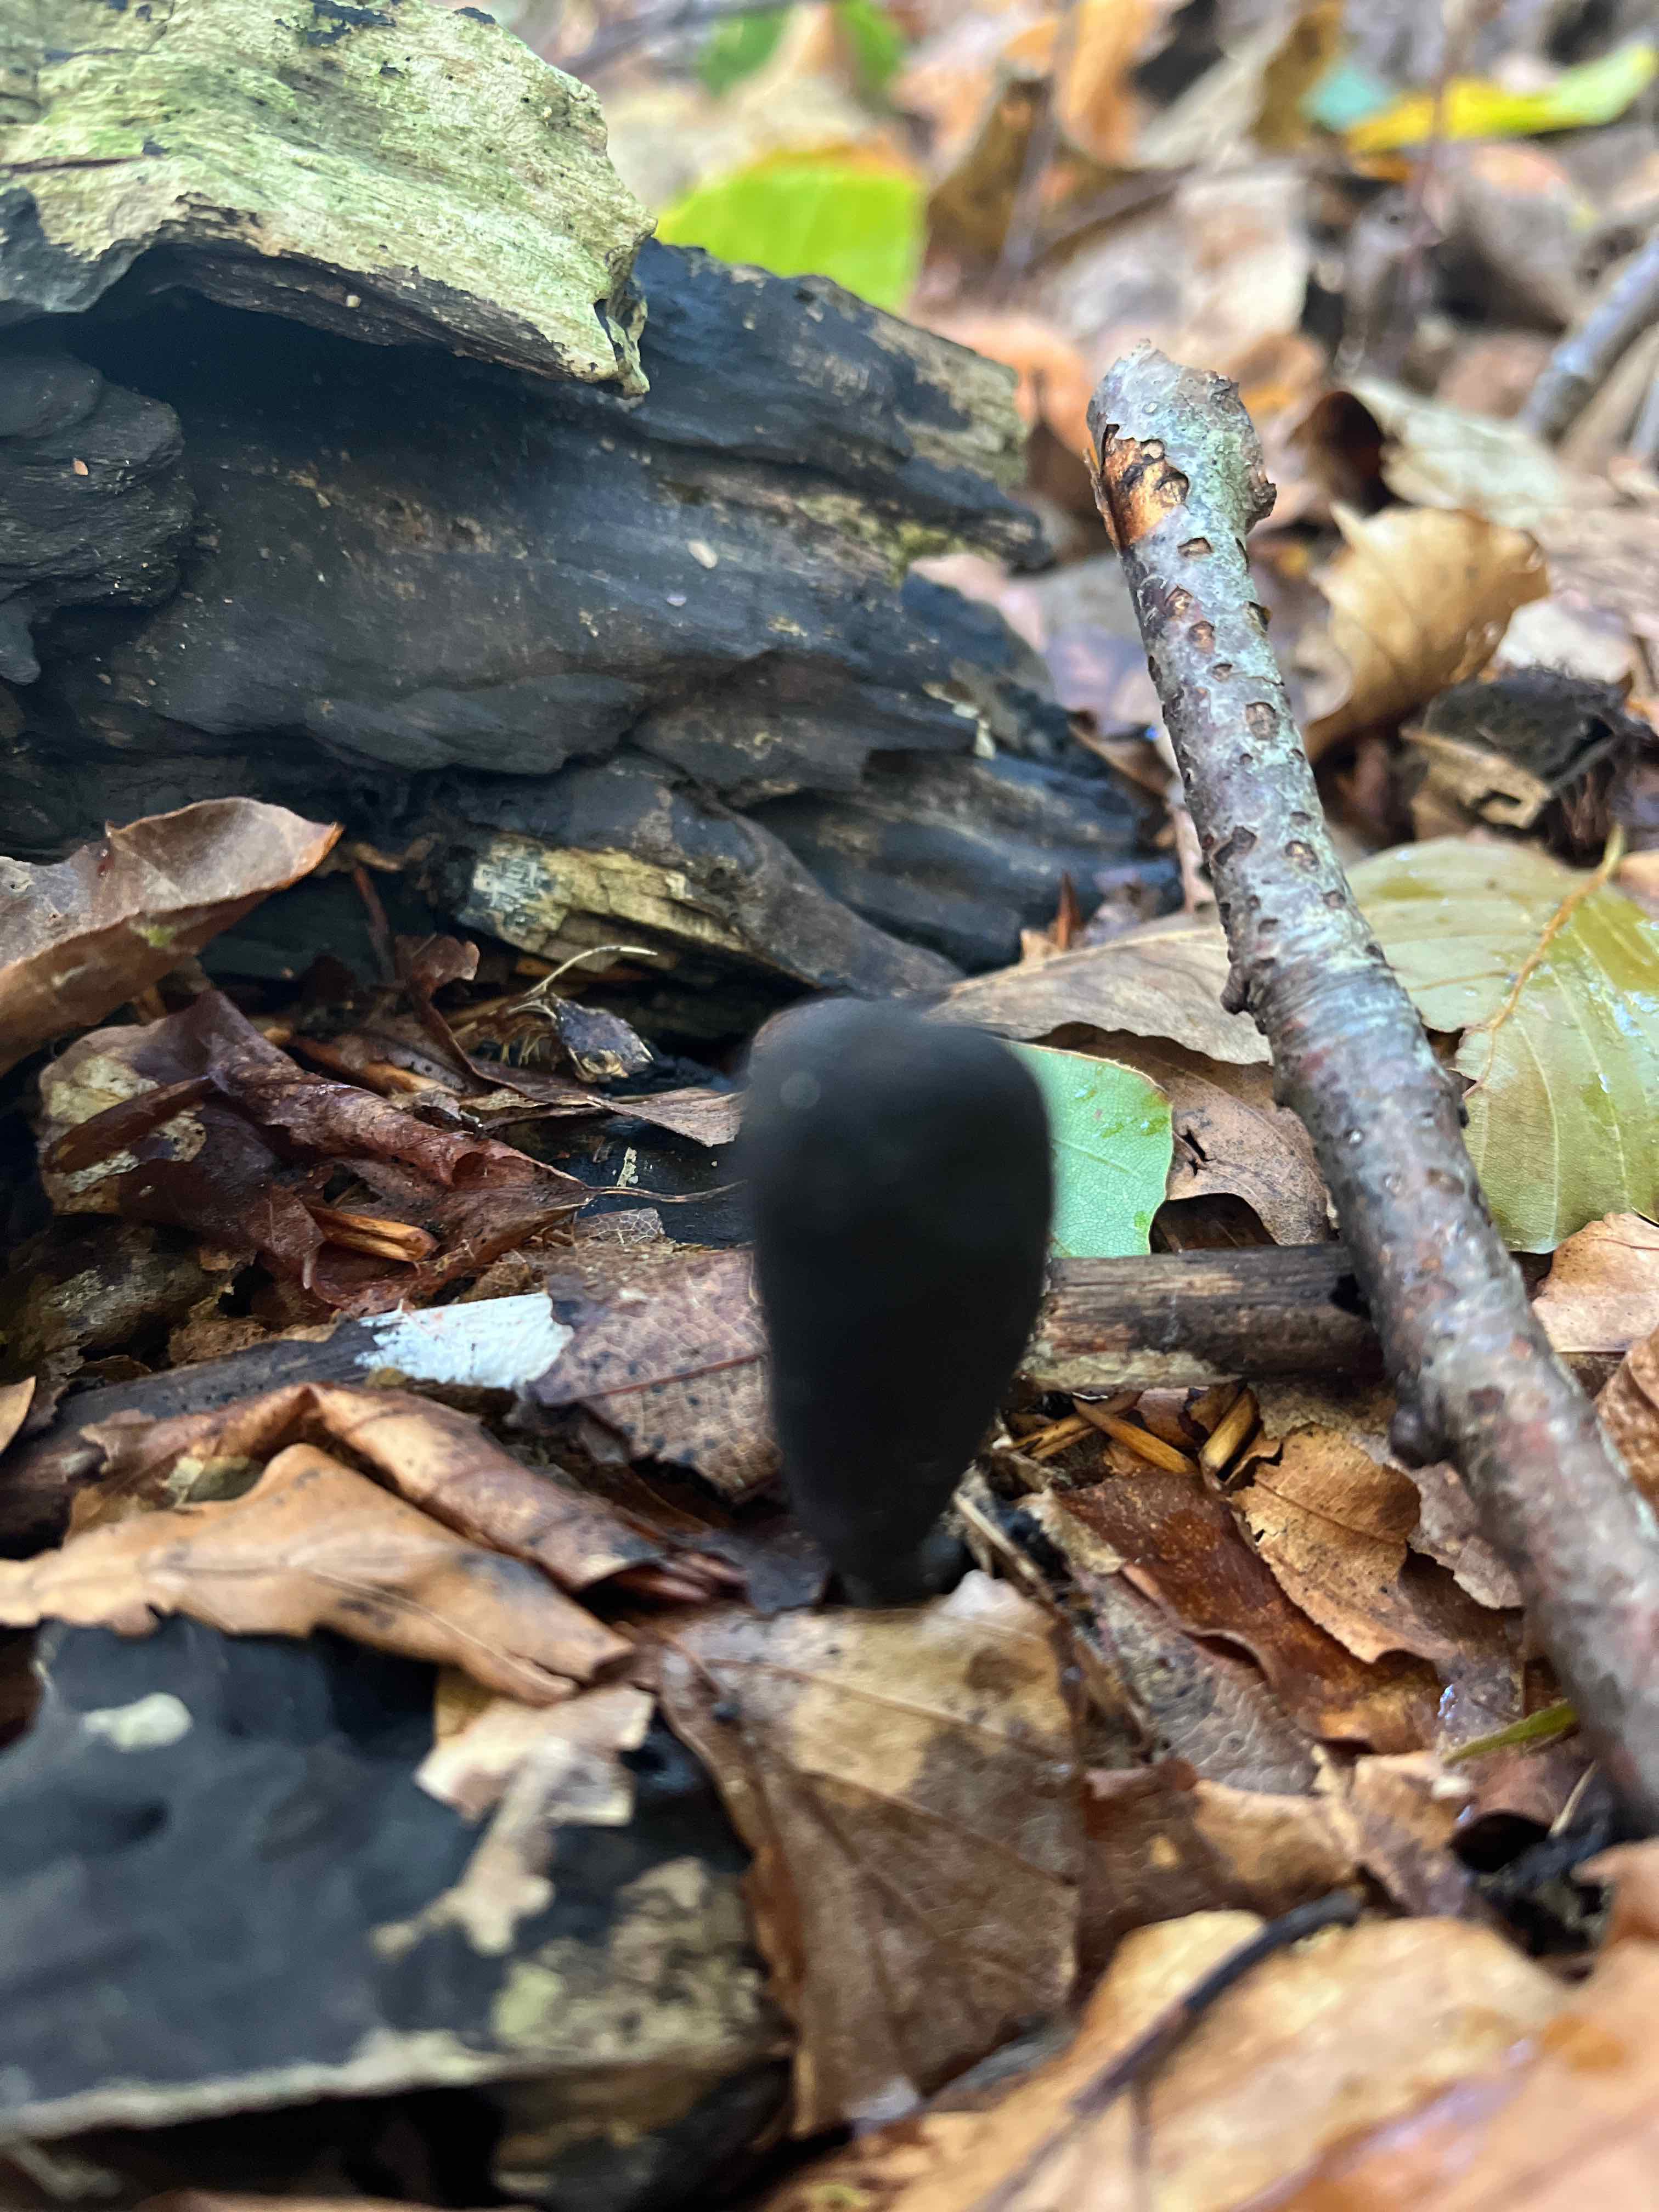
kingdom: Fungi
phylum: Ascomycota
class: Sordariomycetes
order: Xylariales
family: Xylariaceae
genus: Xylaria
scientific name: Xylaria longipes
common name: slank stødsvamp
